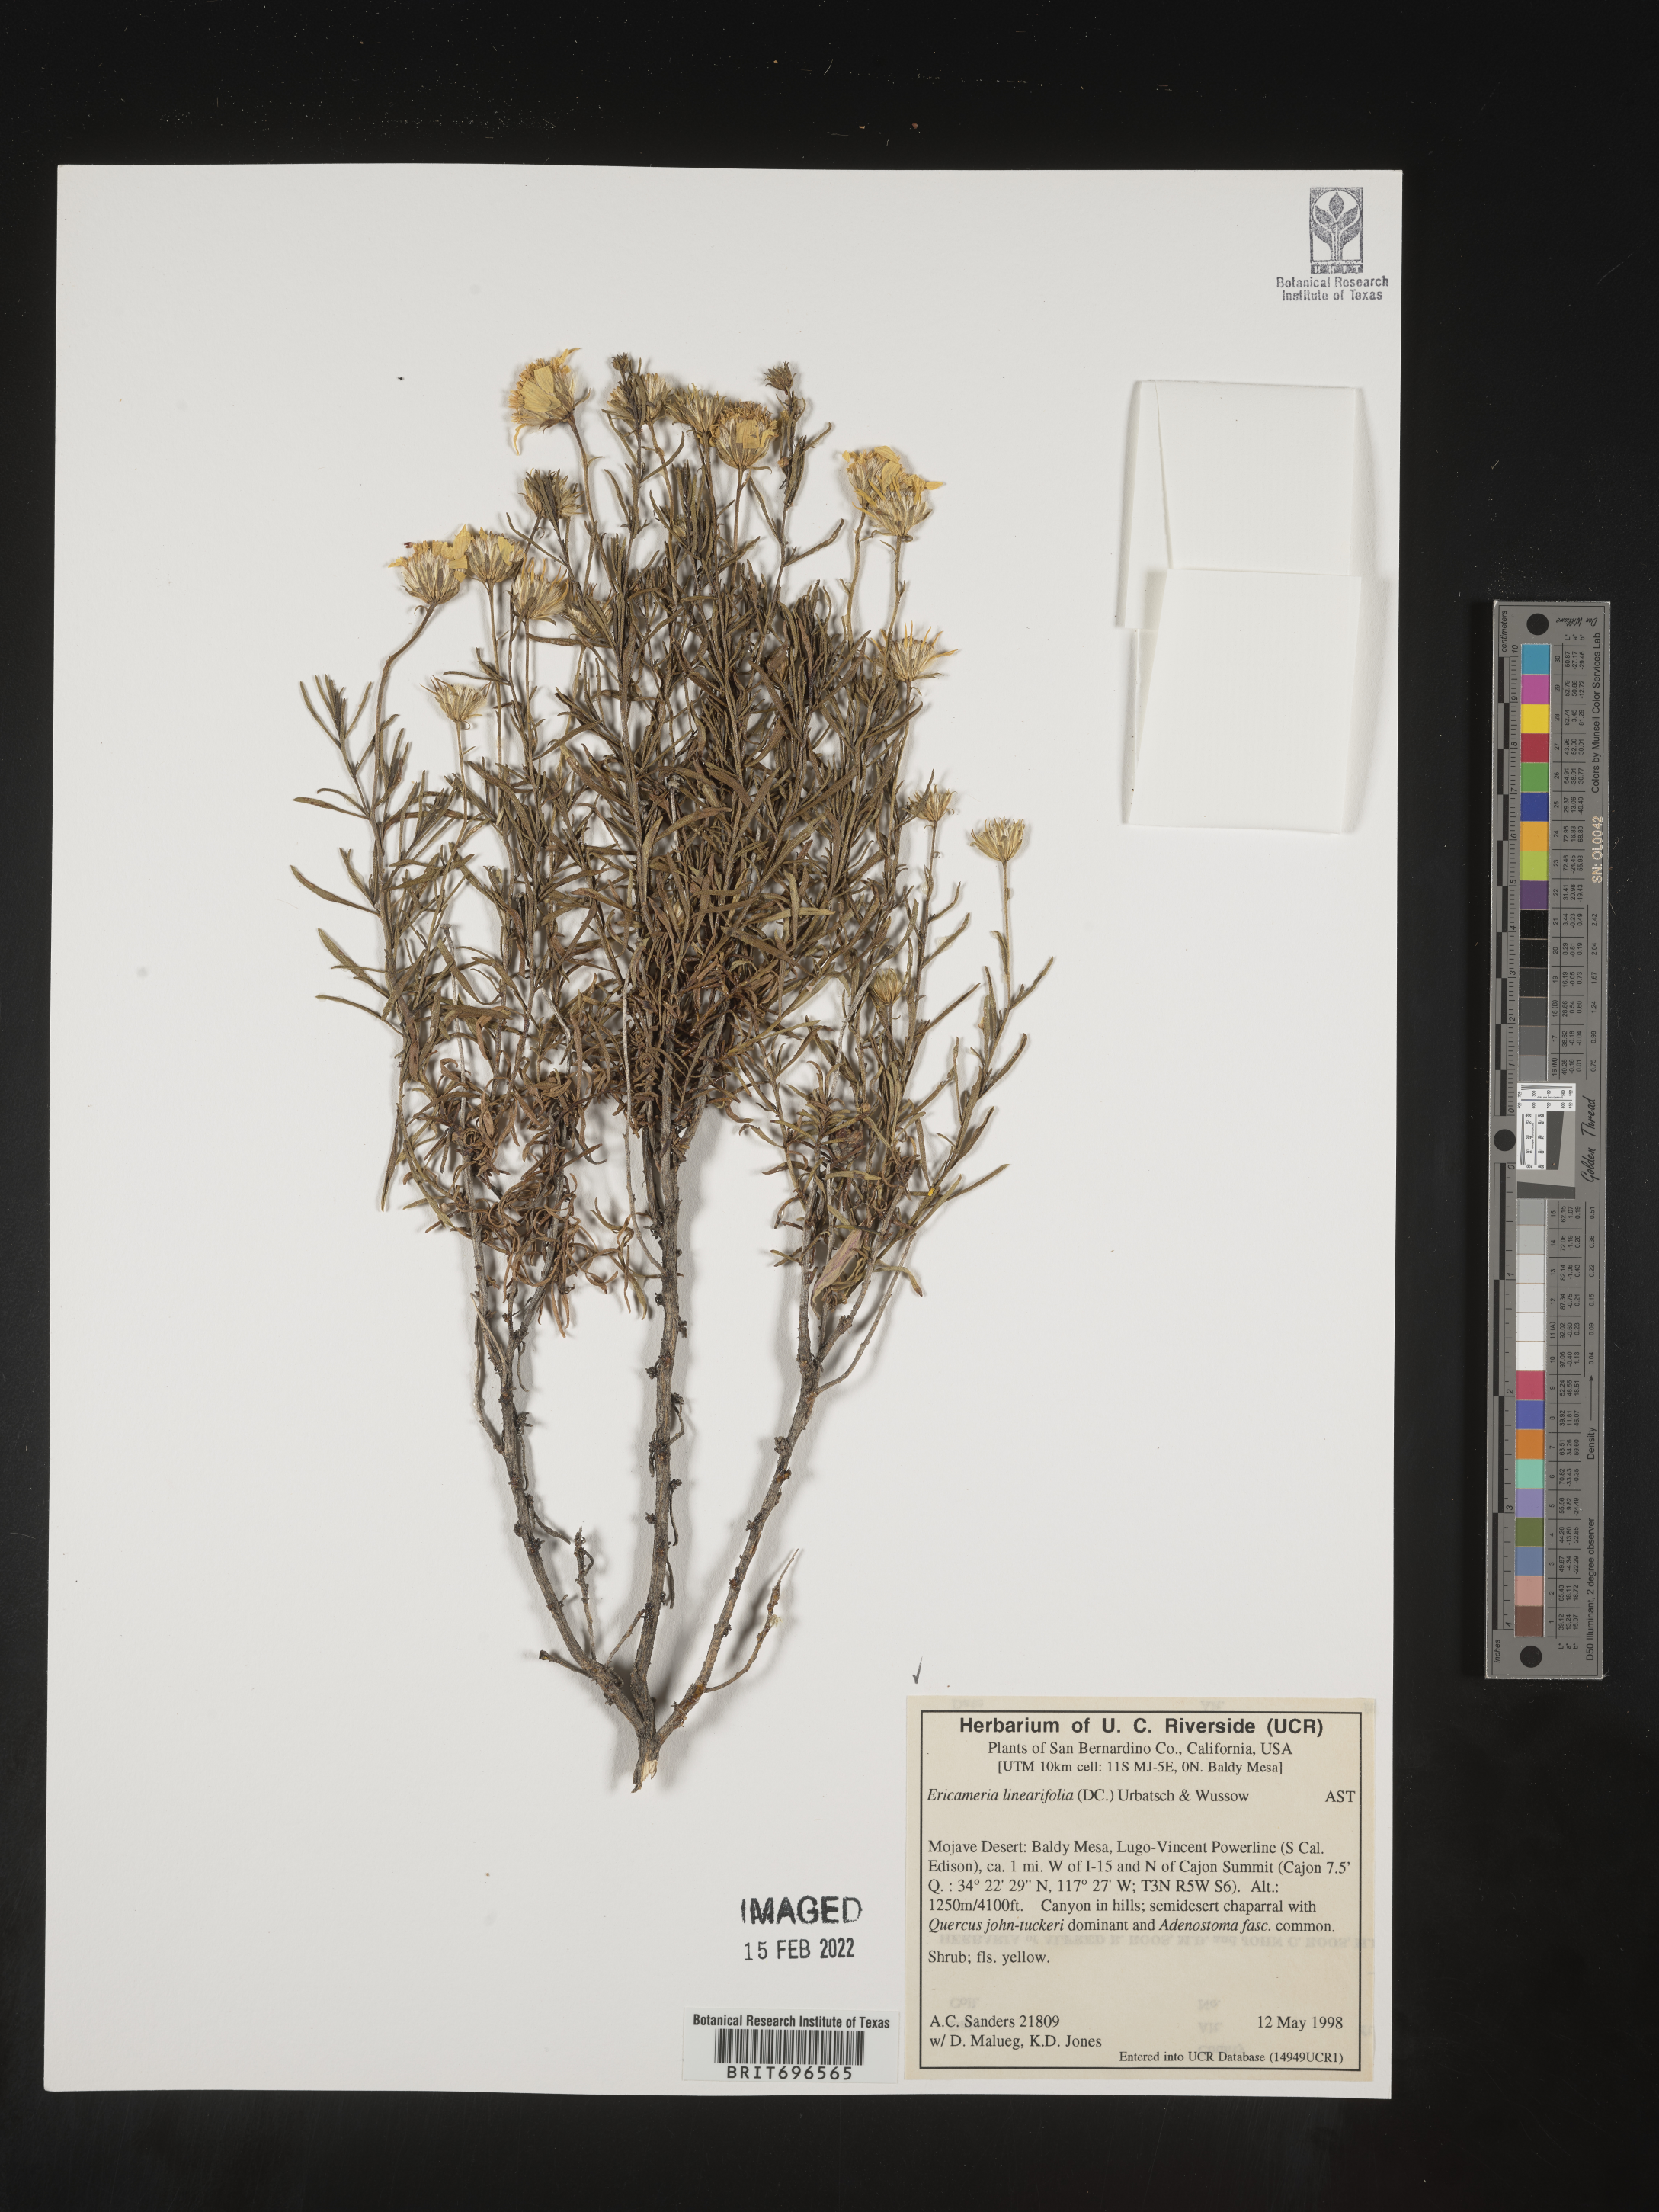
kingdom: Plantae
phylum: Tracheophyta
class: Magnoliopsida
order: Asterales
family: Asteraceae
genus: Ericameria
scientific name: Ericameria linearifolia
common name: Interior goldenbush
